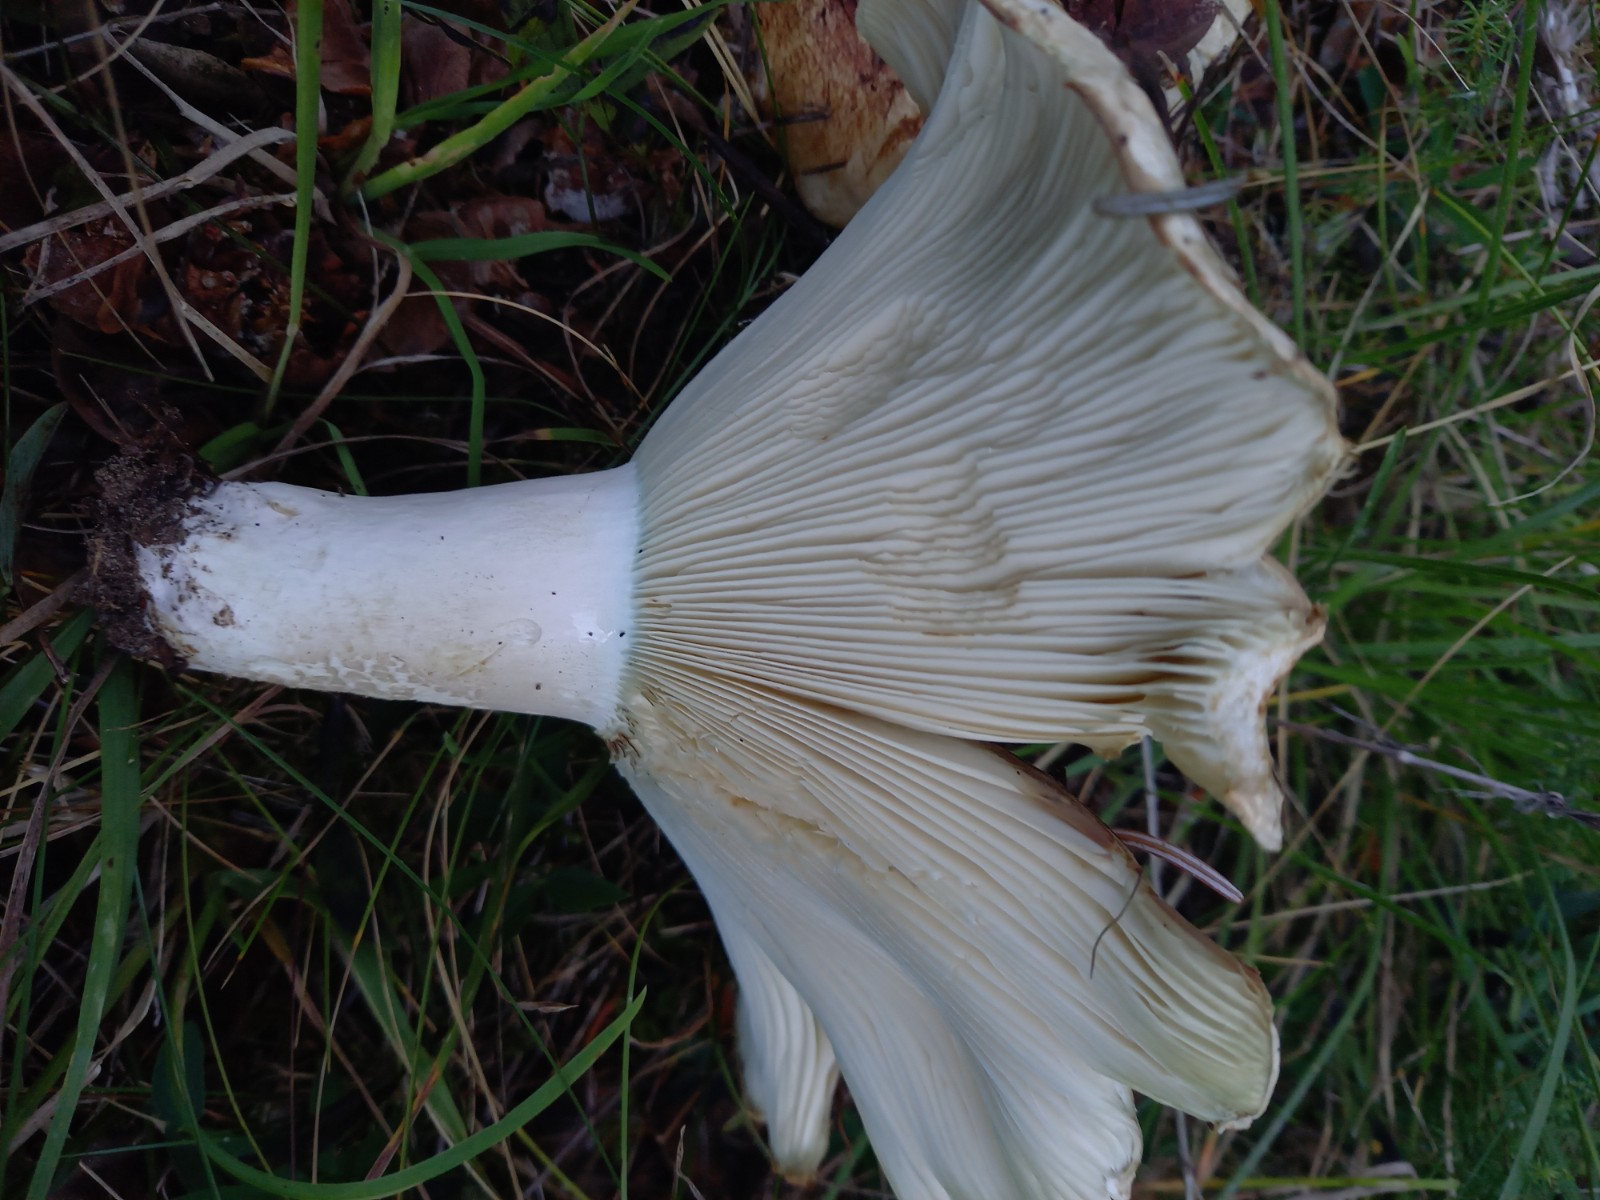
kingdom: Fungi
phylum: Basidiomycota
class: Agaricomycetes
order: Russulales
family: Russulaceae
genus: Russula
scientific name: Russula chloroides
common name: grønhalset tragt-skørhat
